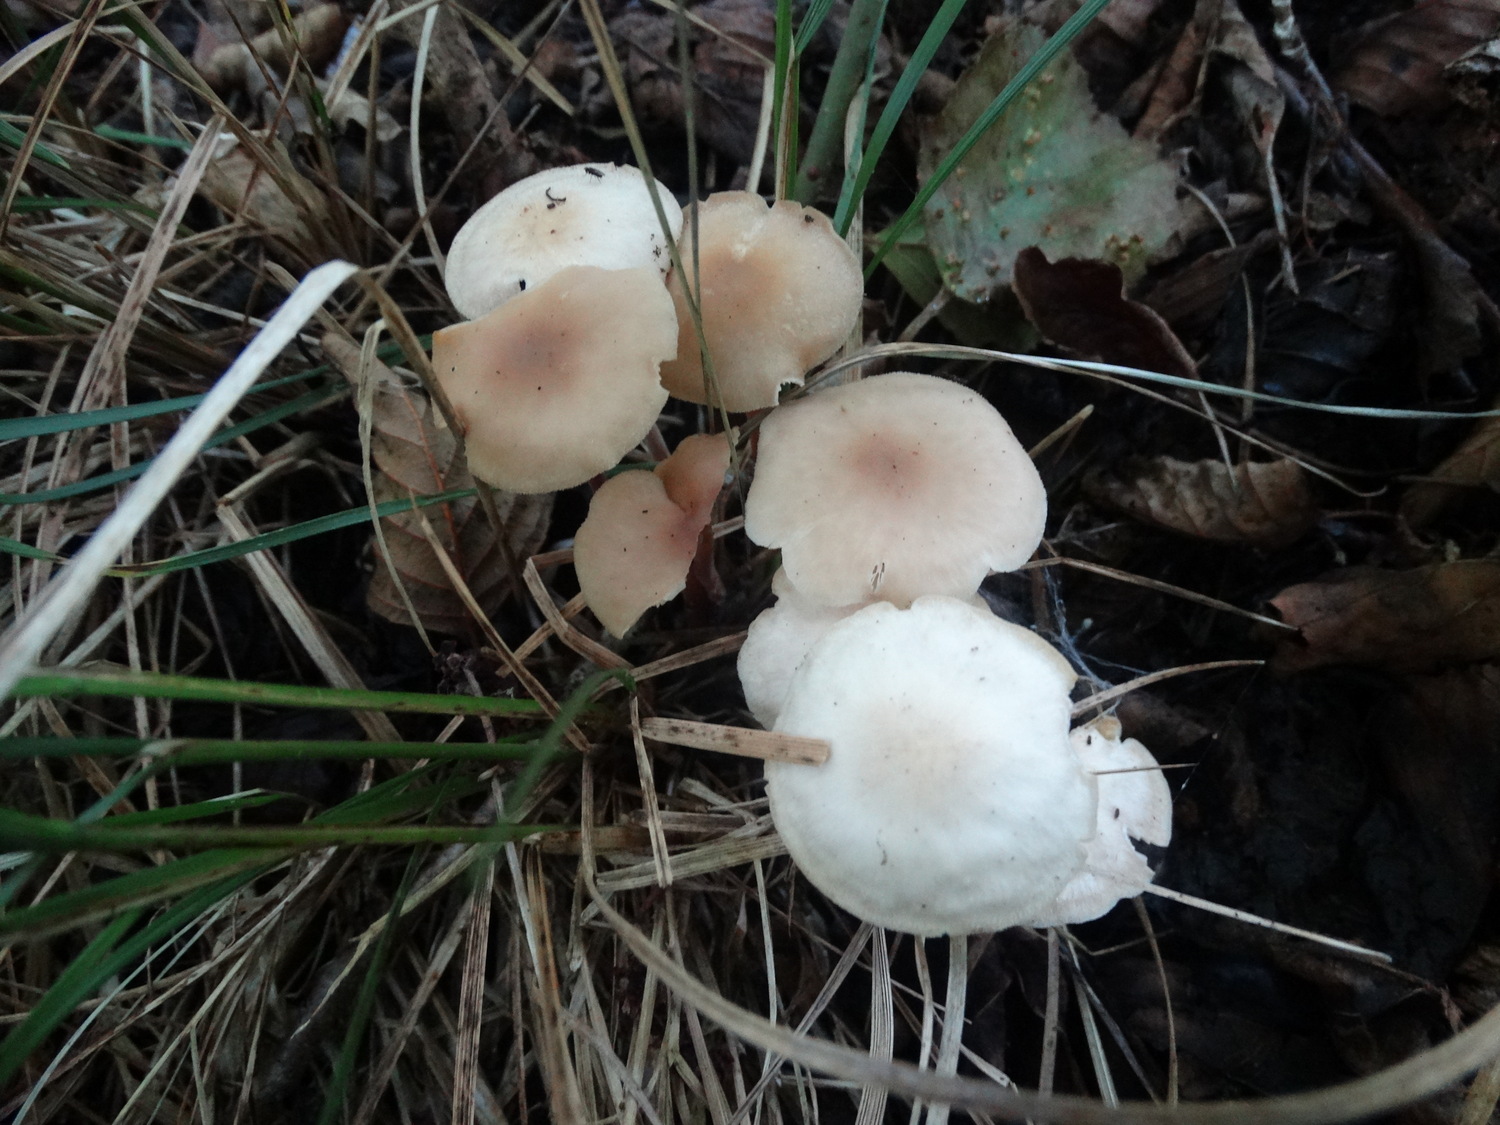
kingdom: Fungi
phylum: Basidiomycota
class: Agaricomycetes
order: Agaricales
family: Omphalotaceae
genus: Collybiopsis
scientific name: Collybiopsis confluens
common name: knippe-fladhat
